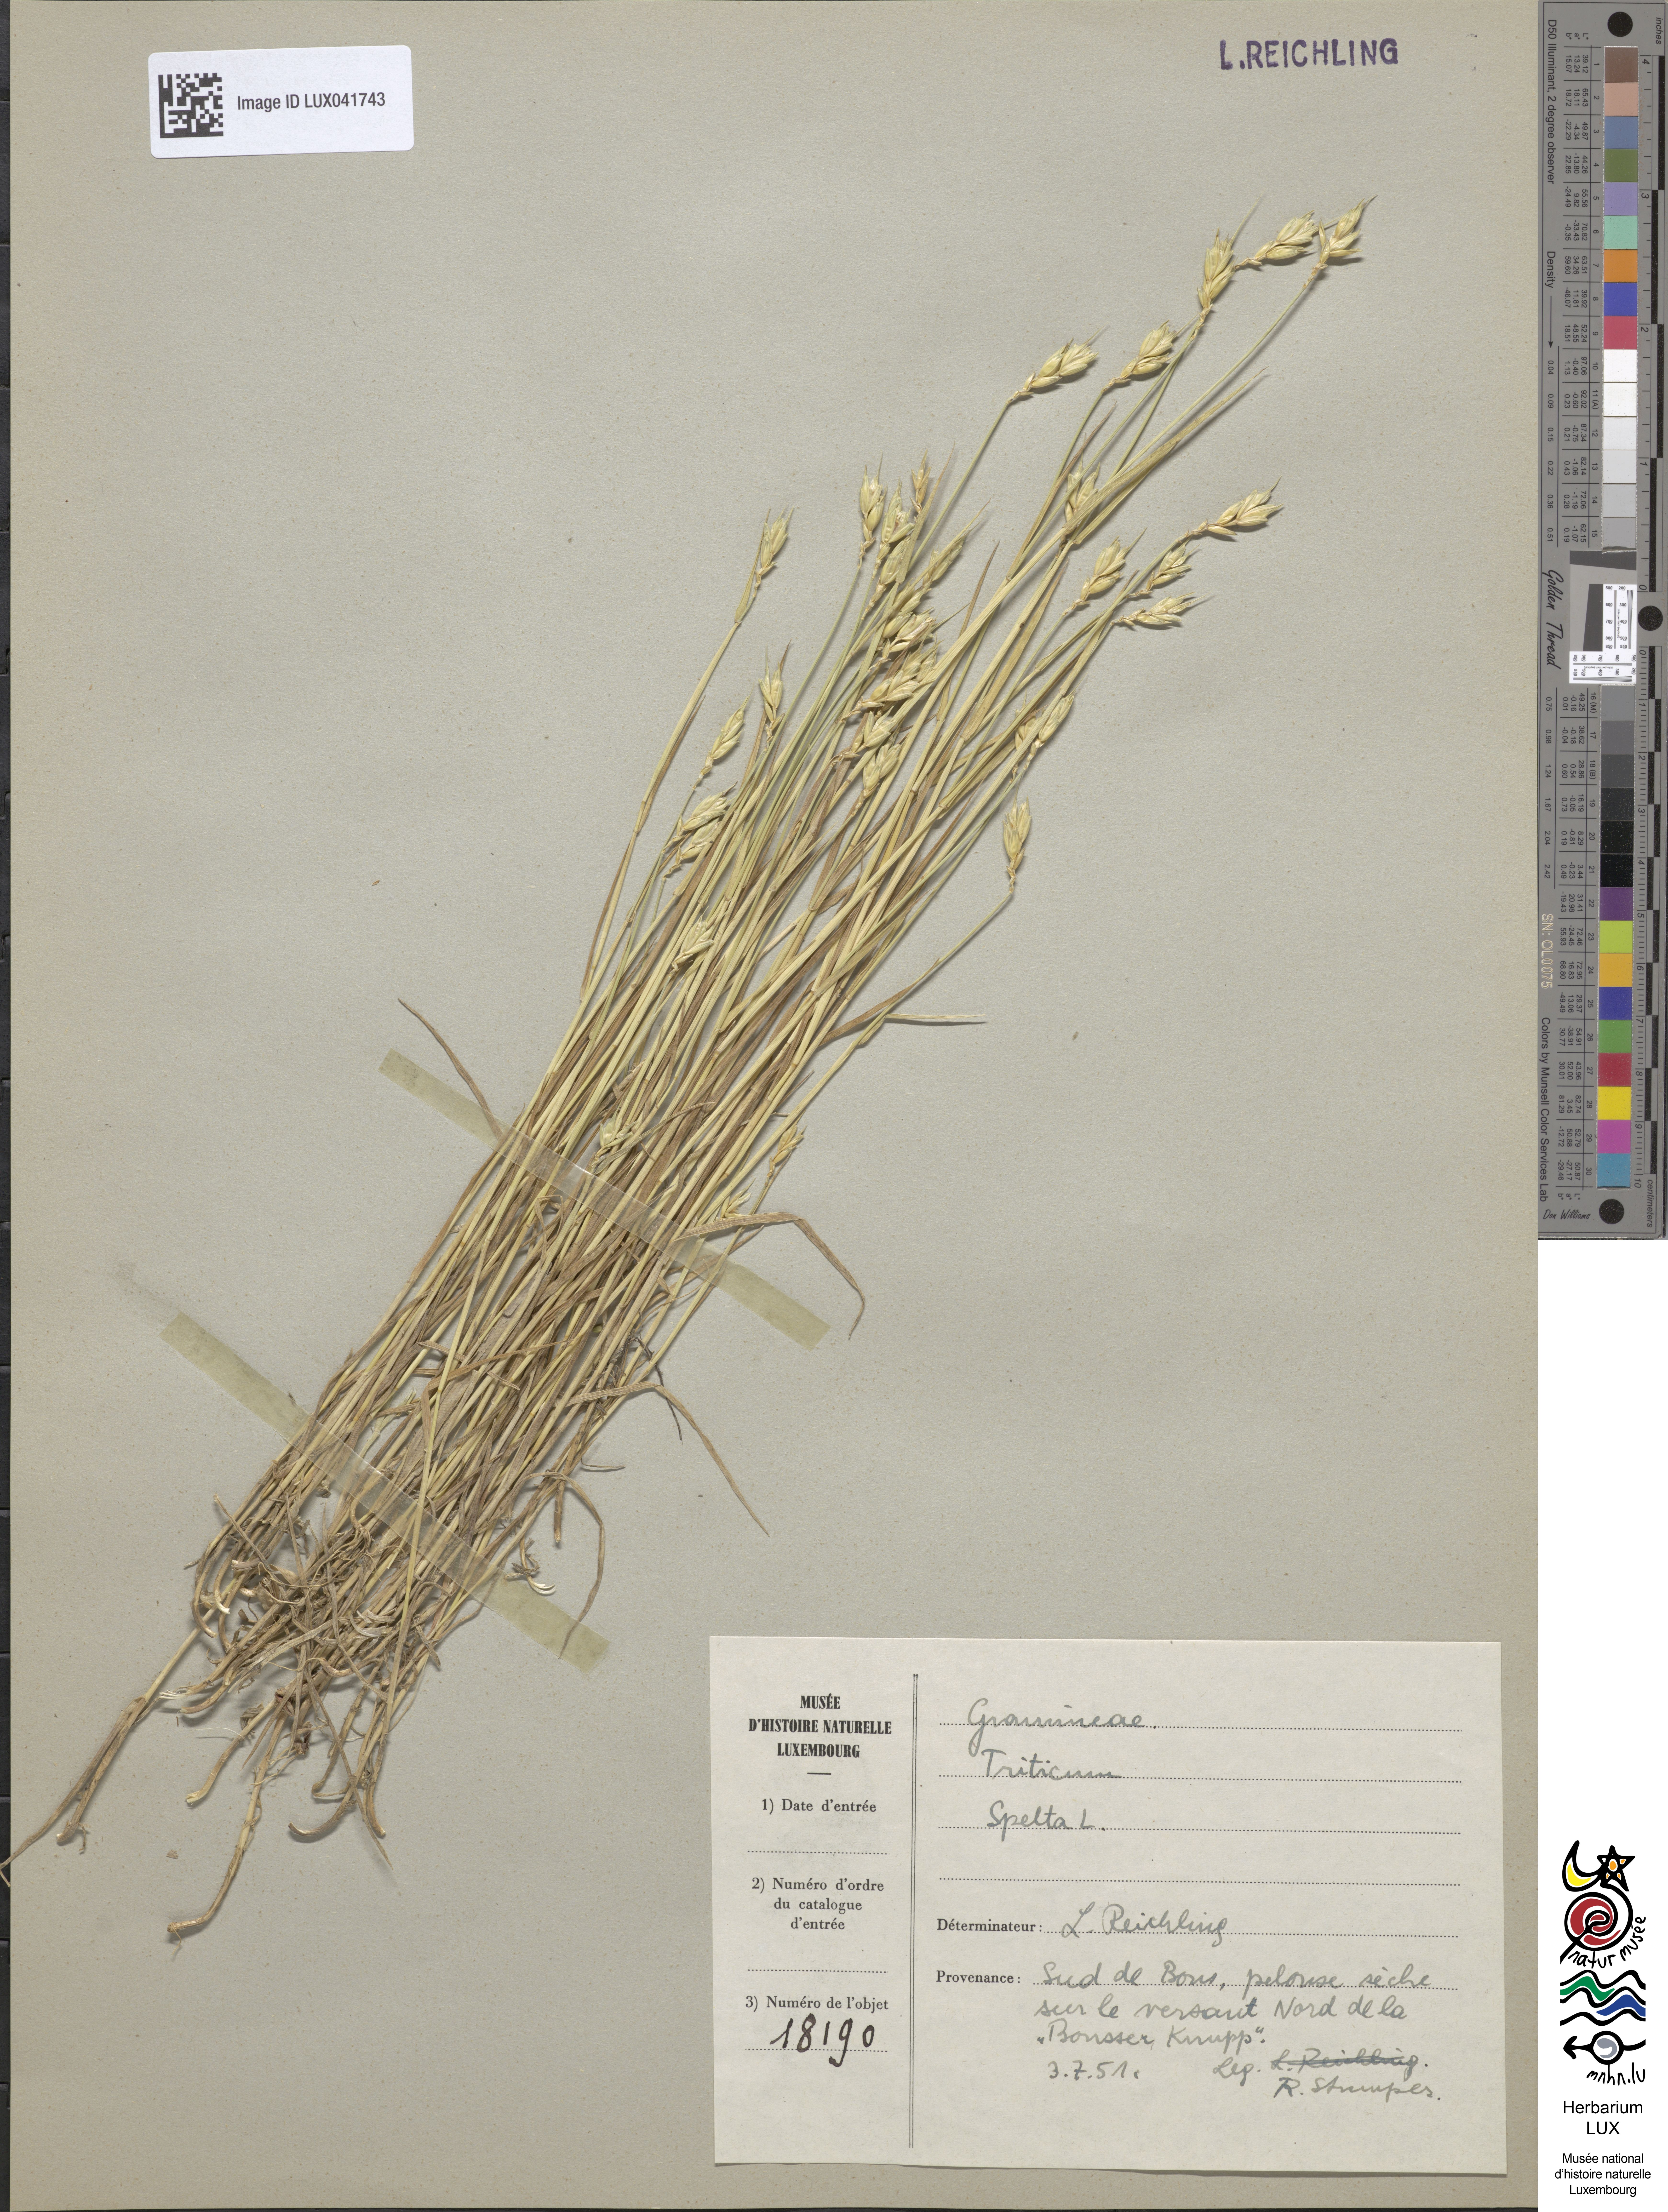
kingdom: Plantae
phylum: Tracheophyta
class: Liliopsida
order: Poales
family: Poaceae
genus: Triticum
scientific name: Triticum aestivum
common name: Common wheat
